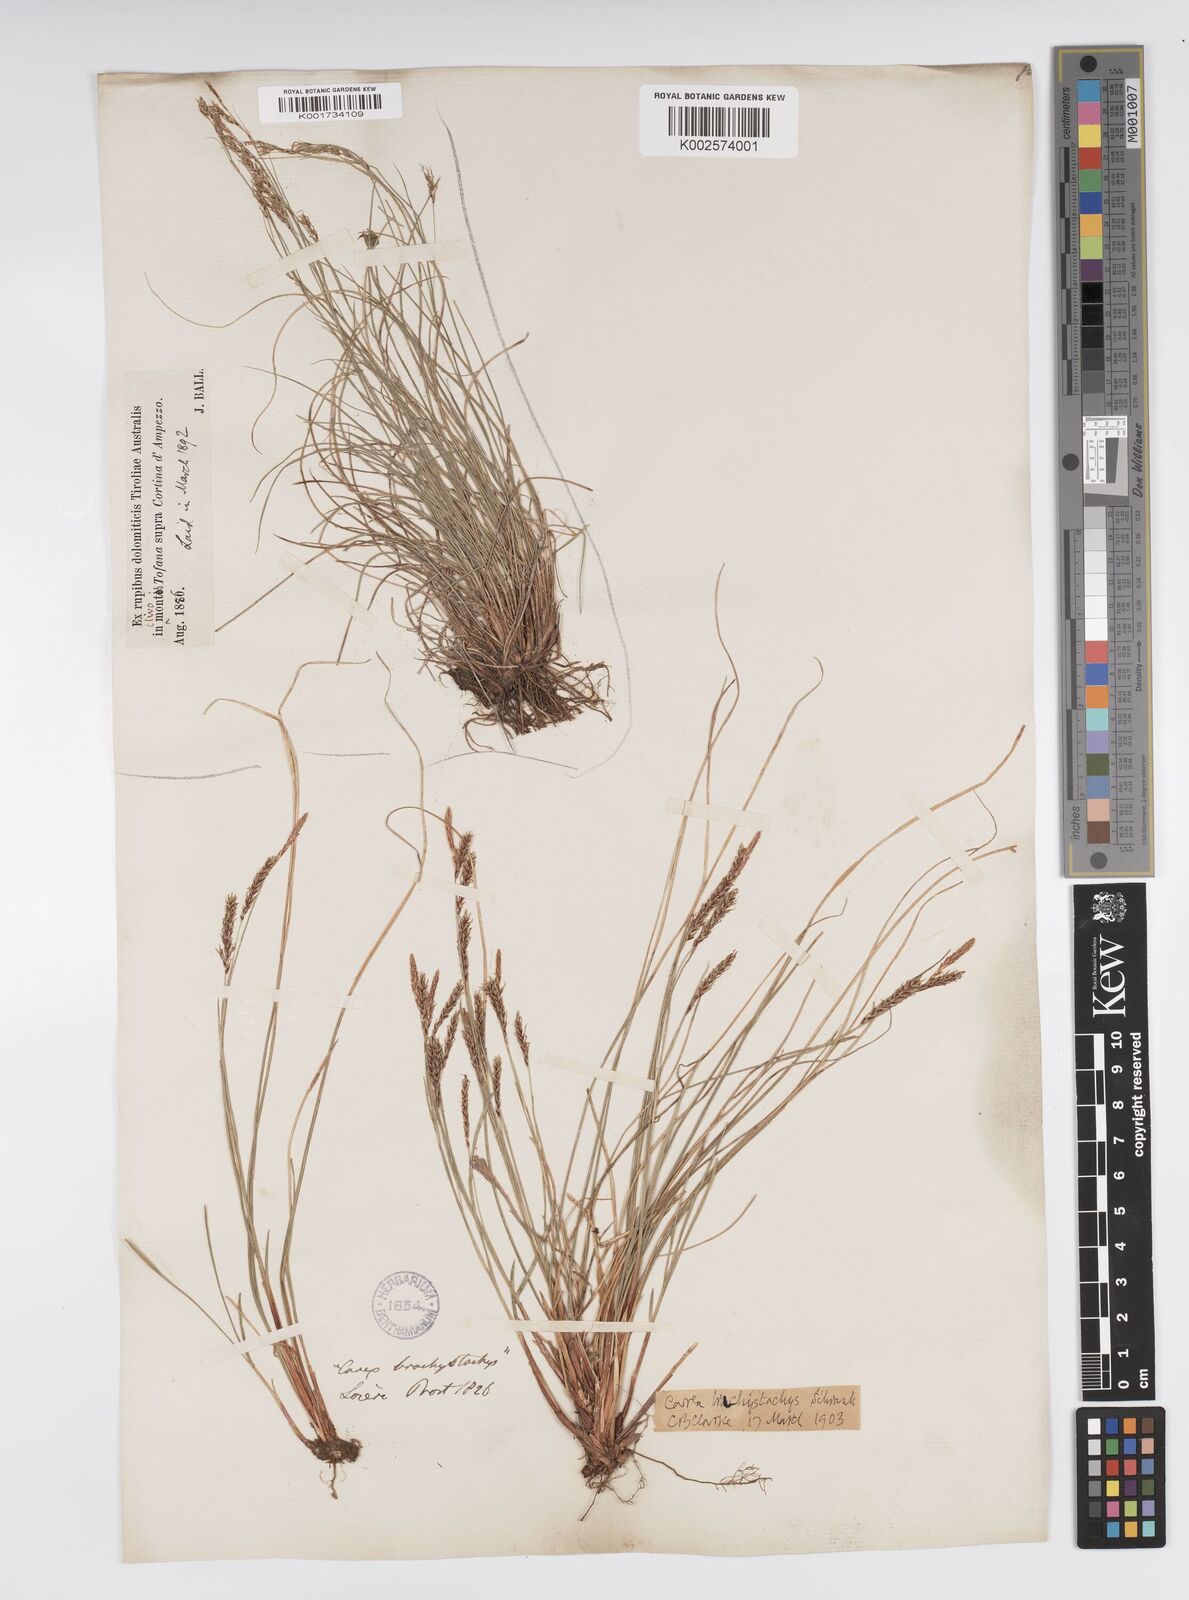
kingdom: Plantae
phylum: Tracheophyta
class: Liliopsida
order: Poales
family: Cyperaceae
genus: Carex
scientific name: Carex brachystachys
